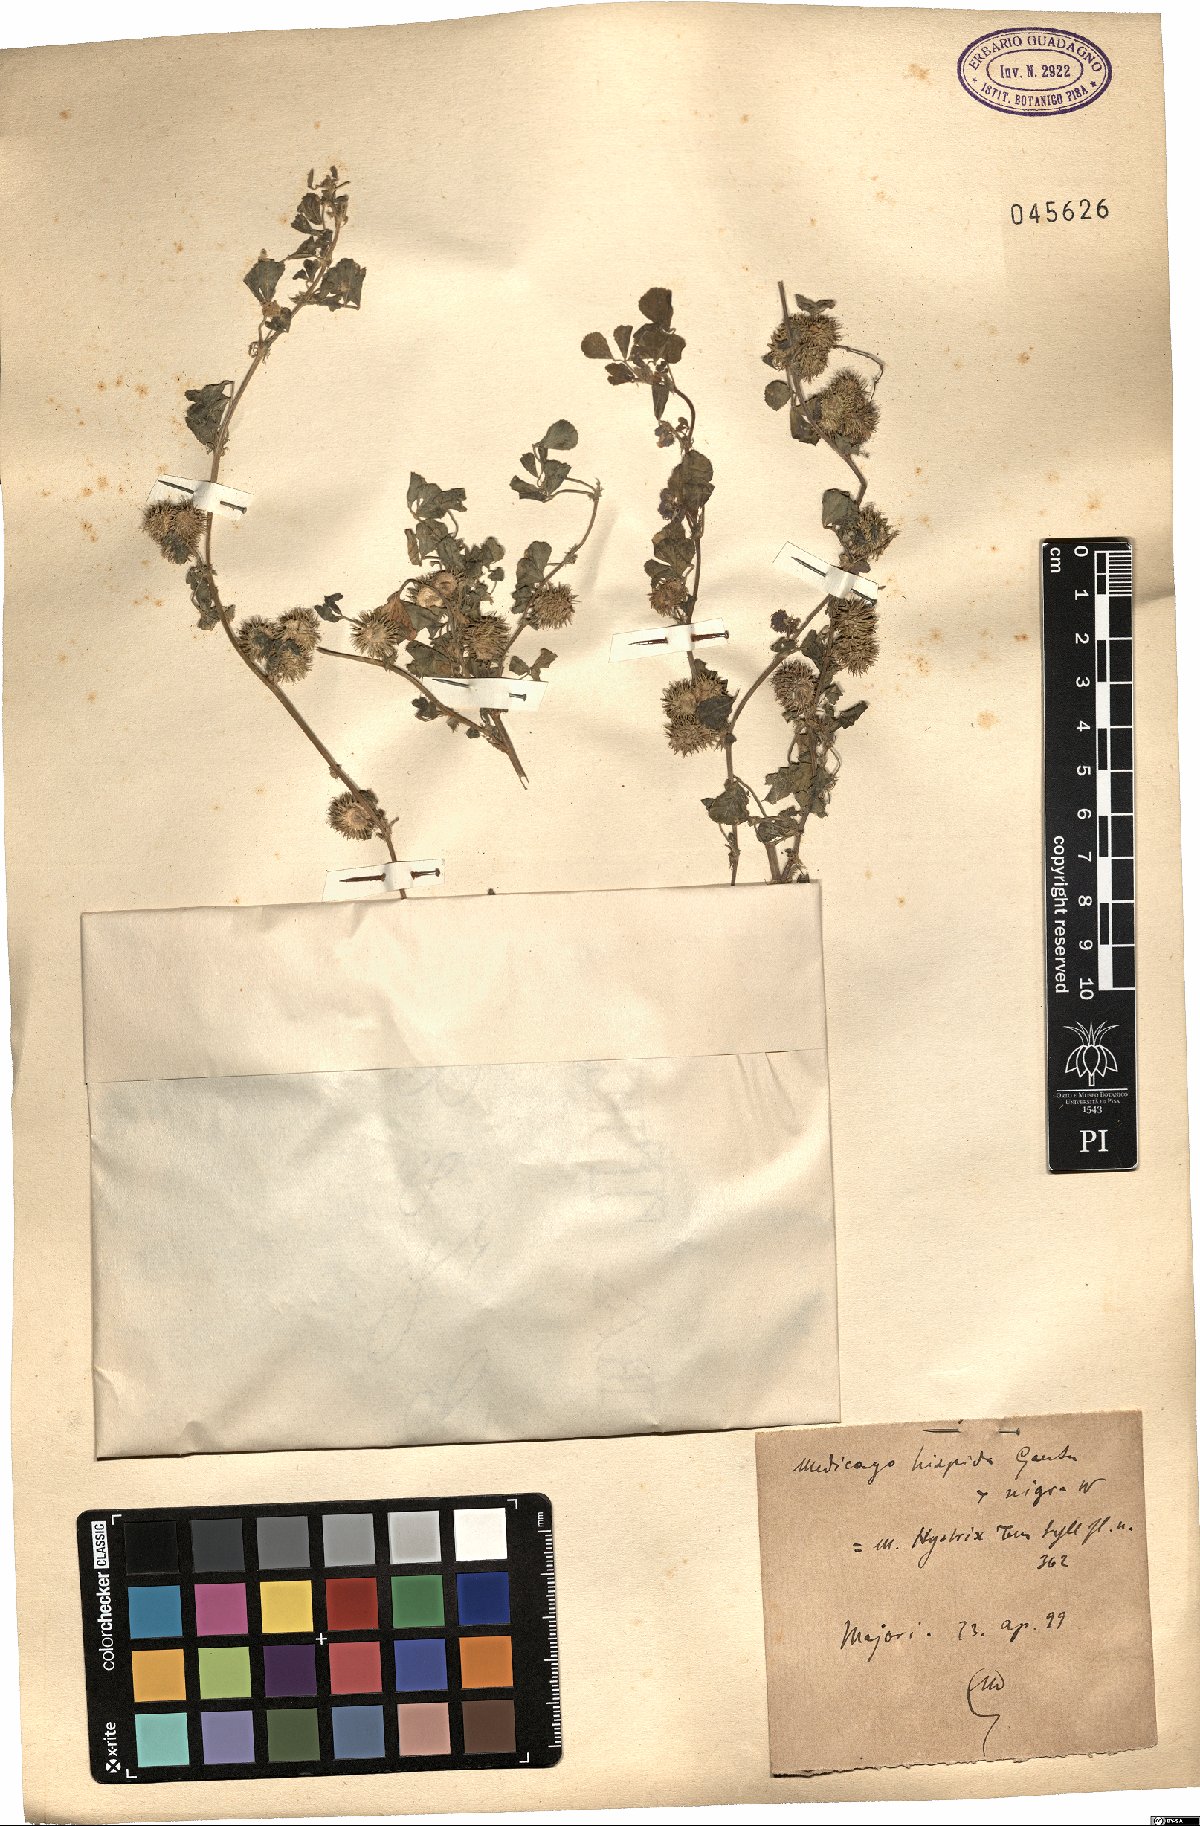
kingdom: Plantae
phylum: Tracheophyta
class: Magnoliopsida
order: Fabales
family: Fabaceae
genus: Medicago
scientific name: Medicago polymorpha
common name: Burclover
